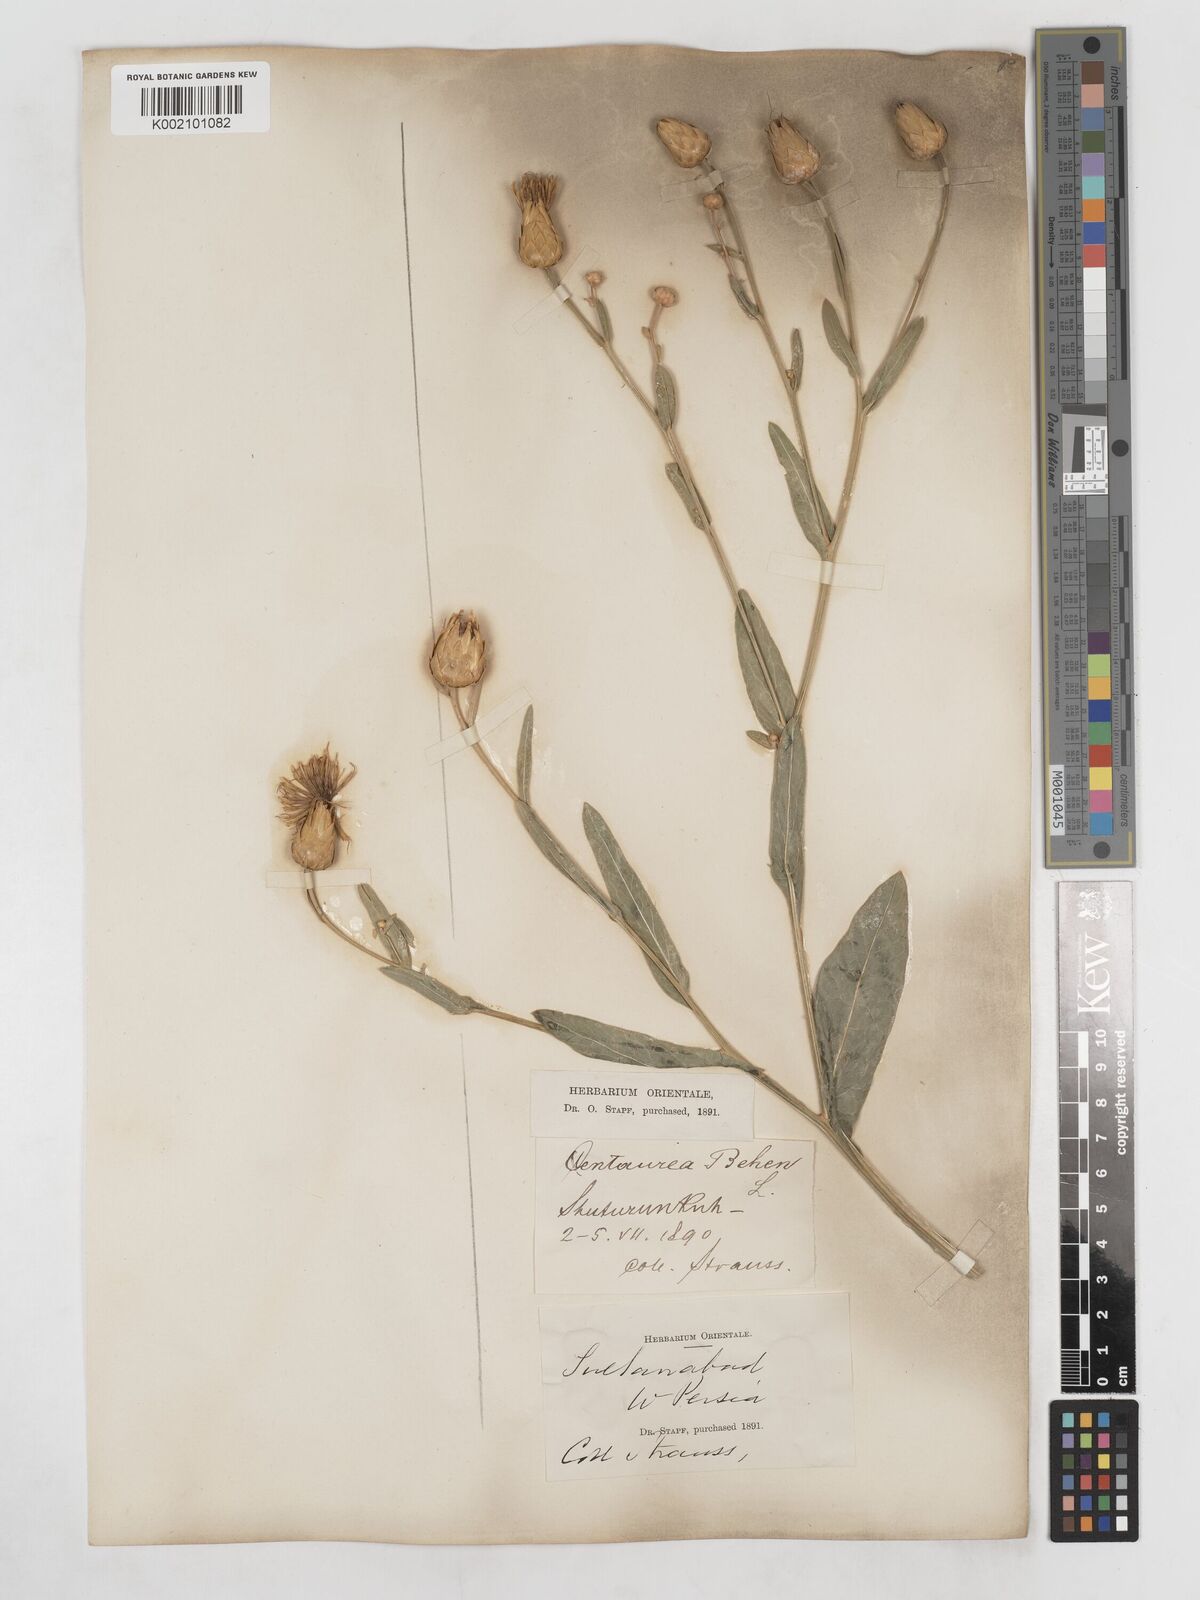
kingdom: Plantae
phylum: Tracheophyta
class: Magnoliopsida
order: Asterales
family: Asteraceae
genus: Centaurea
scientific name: Centaurea behen
